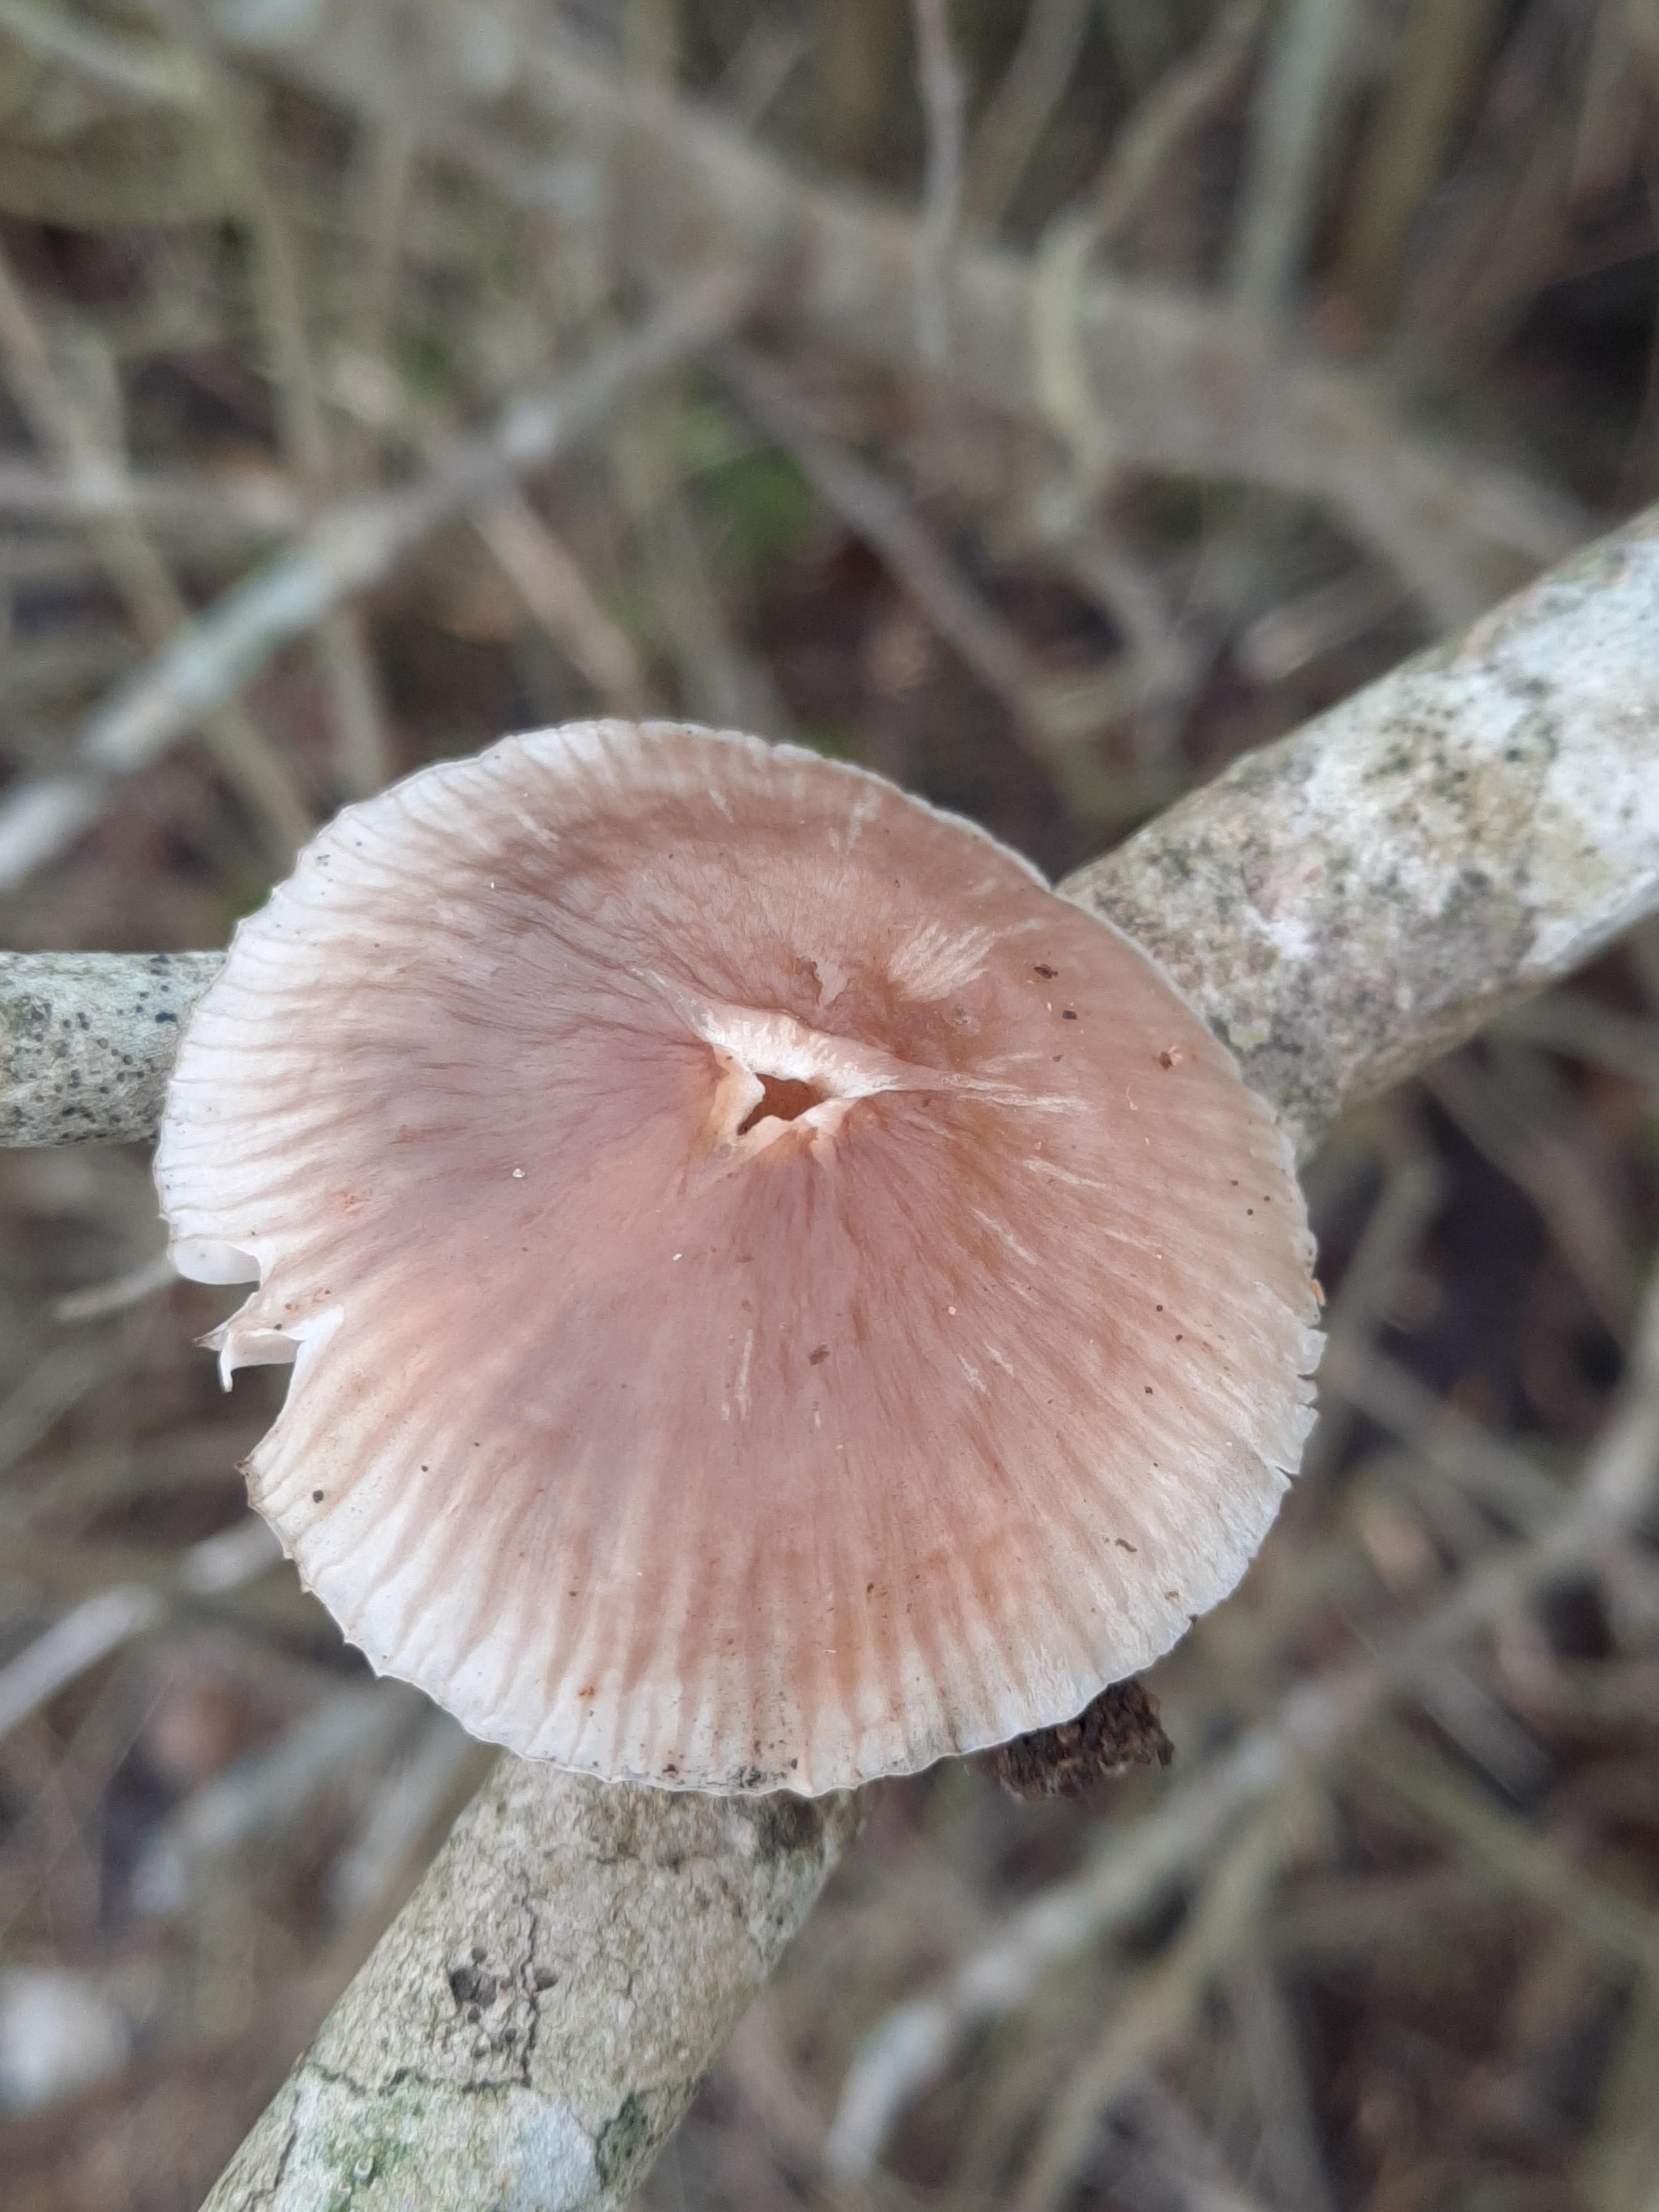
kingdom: Fungi
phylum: Basidiomycota
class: Agaricomycetes
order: Agaricales
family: Mycenaceae
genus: Mycena
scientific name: Mycena galericulata
